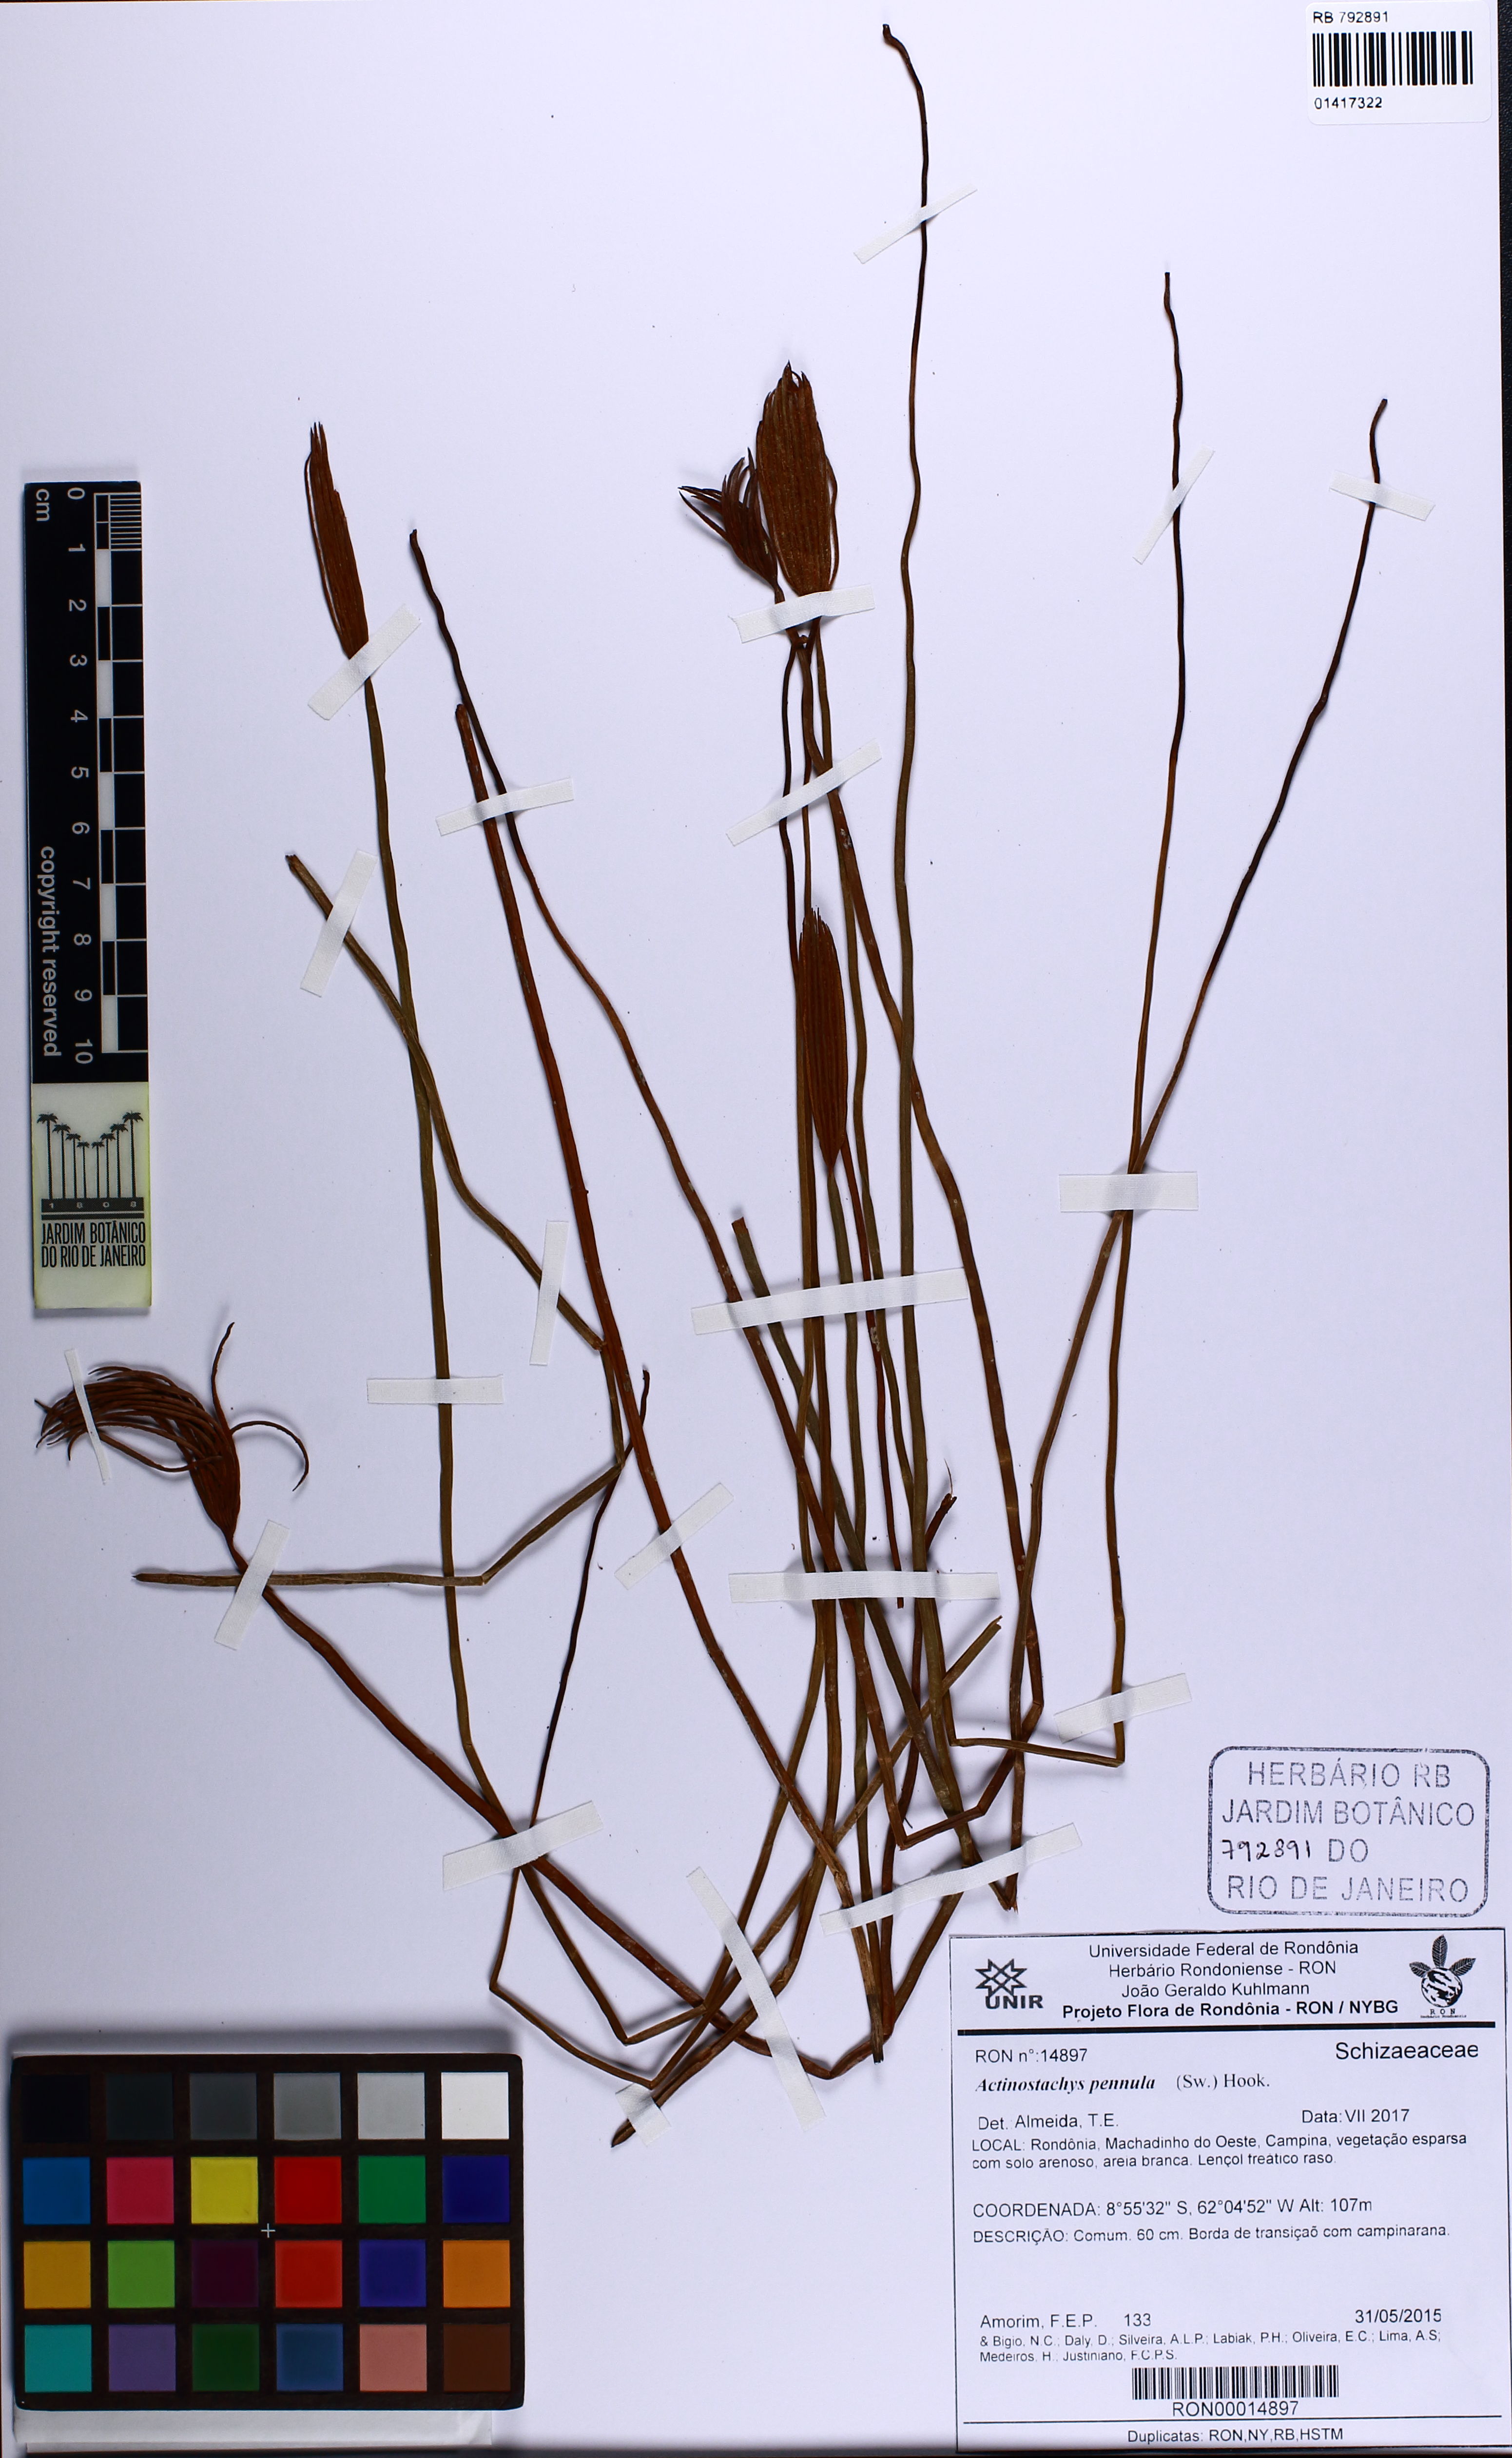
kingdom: Plantae
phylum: Tracheophyta
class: Polypodiopsida
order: Schizaeales
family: Schizaeaceae
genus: Actinostachys
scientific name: Actinostachys pennula
